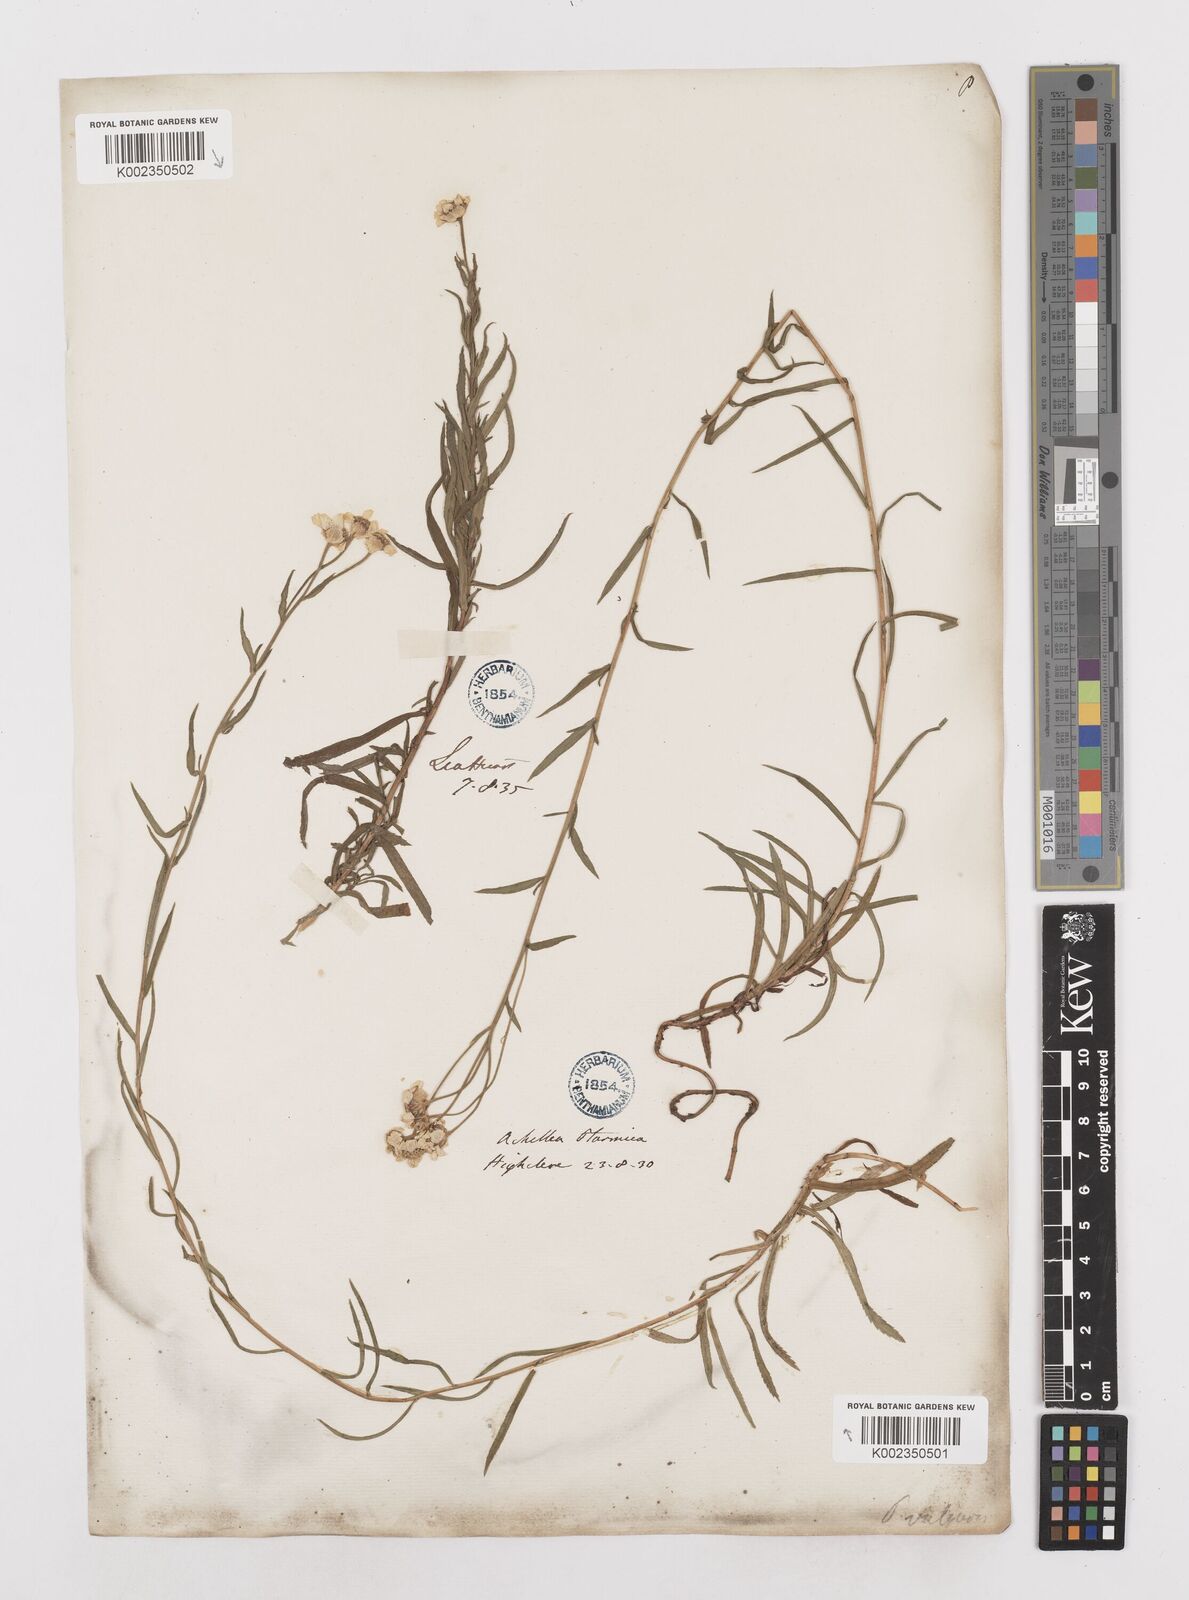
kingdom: Plantae
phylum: Tracheophyta
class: Magnoliopsida
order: Asterales
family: Asteraceae
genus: Achillea
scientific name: Achillea ptarmica
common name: Sneezeweed
